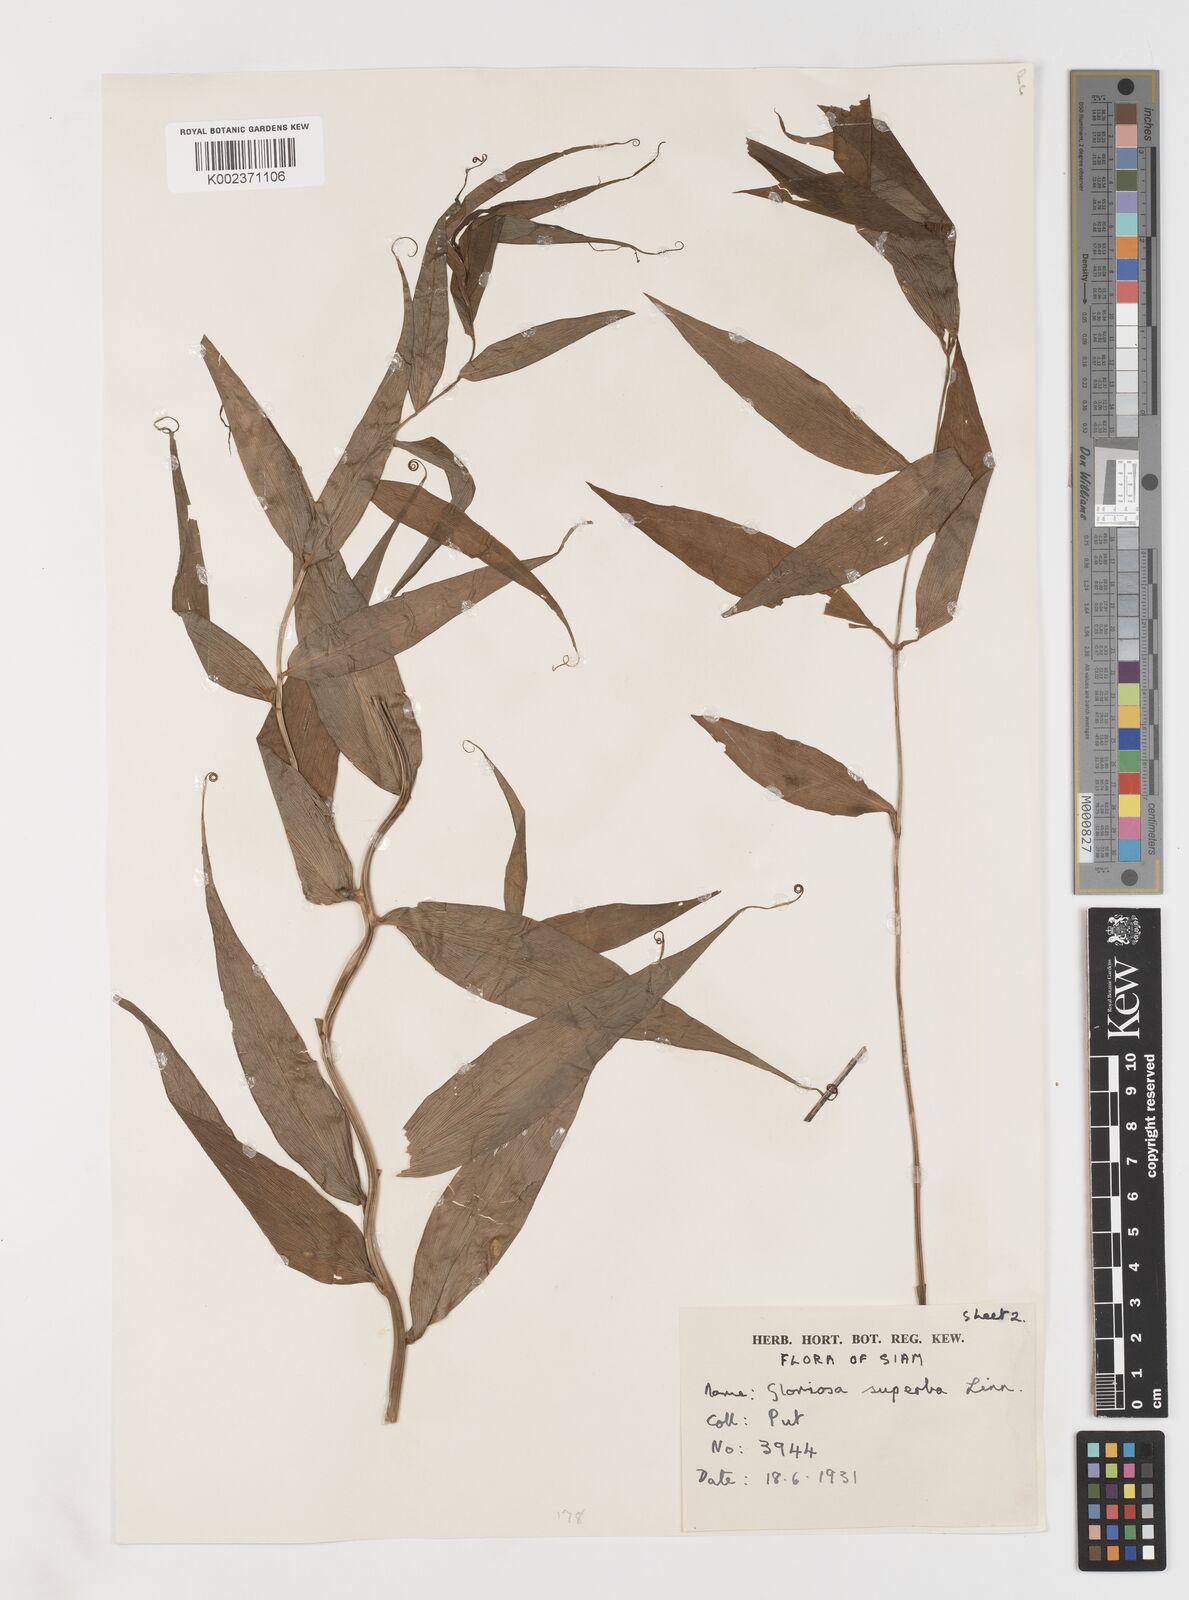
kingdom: Plantae
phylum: Tracheophyta
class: Liliopsida
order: Liliales
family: Colchicaceae
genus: Gloriosa
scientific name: Gloriosa superba
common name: Flame lily
